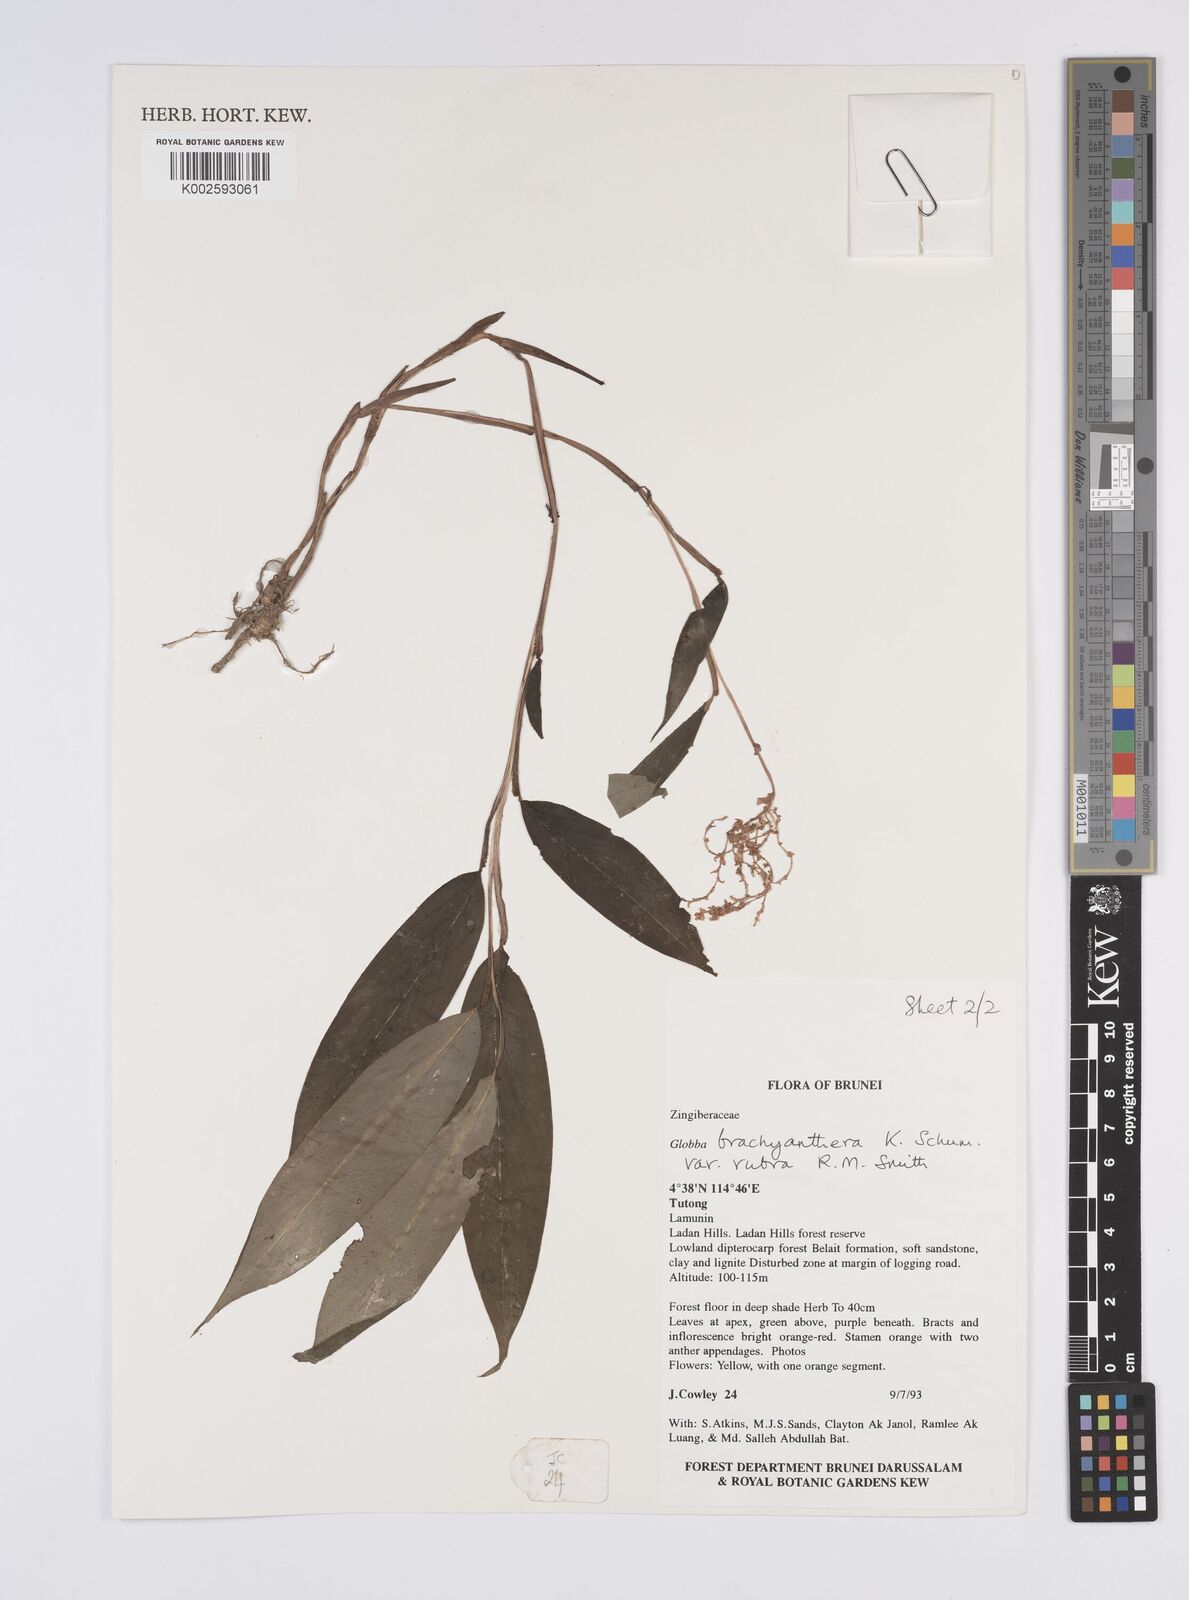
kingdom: Plantae
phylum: Tracheophyta
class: Liliopsida
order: Zingiberales
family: Zingiberaceae
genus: Globba
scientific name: Globba brachyanthera
